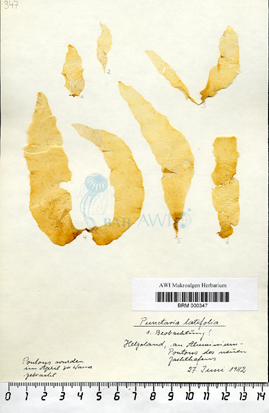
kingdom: Chromista
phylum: Ochrophyta
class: Phaeophyceae
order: Ectocarpales
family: Chordariaceae
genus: Punctaria
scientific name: Punctaria latifolia
